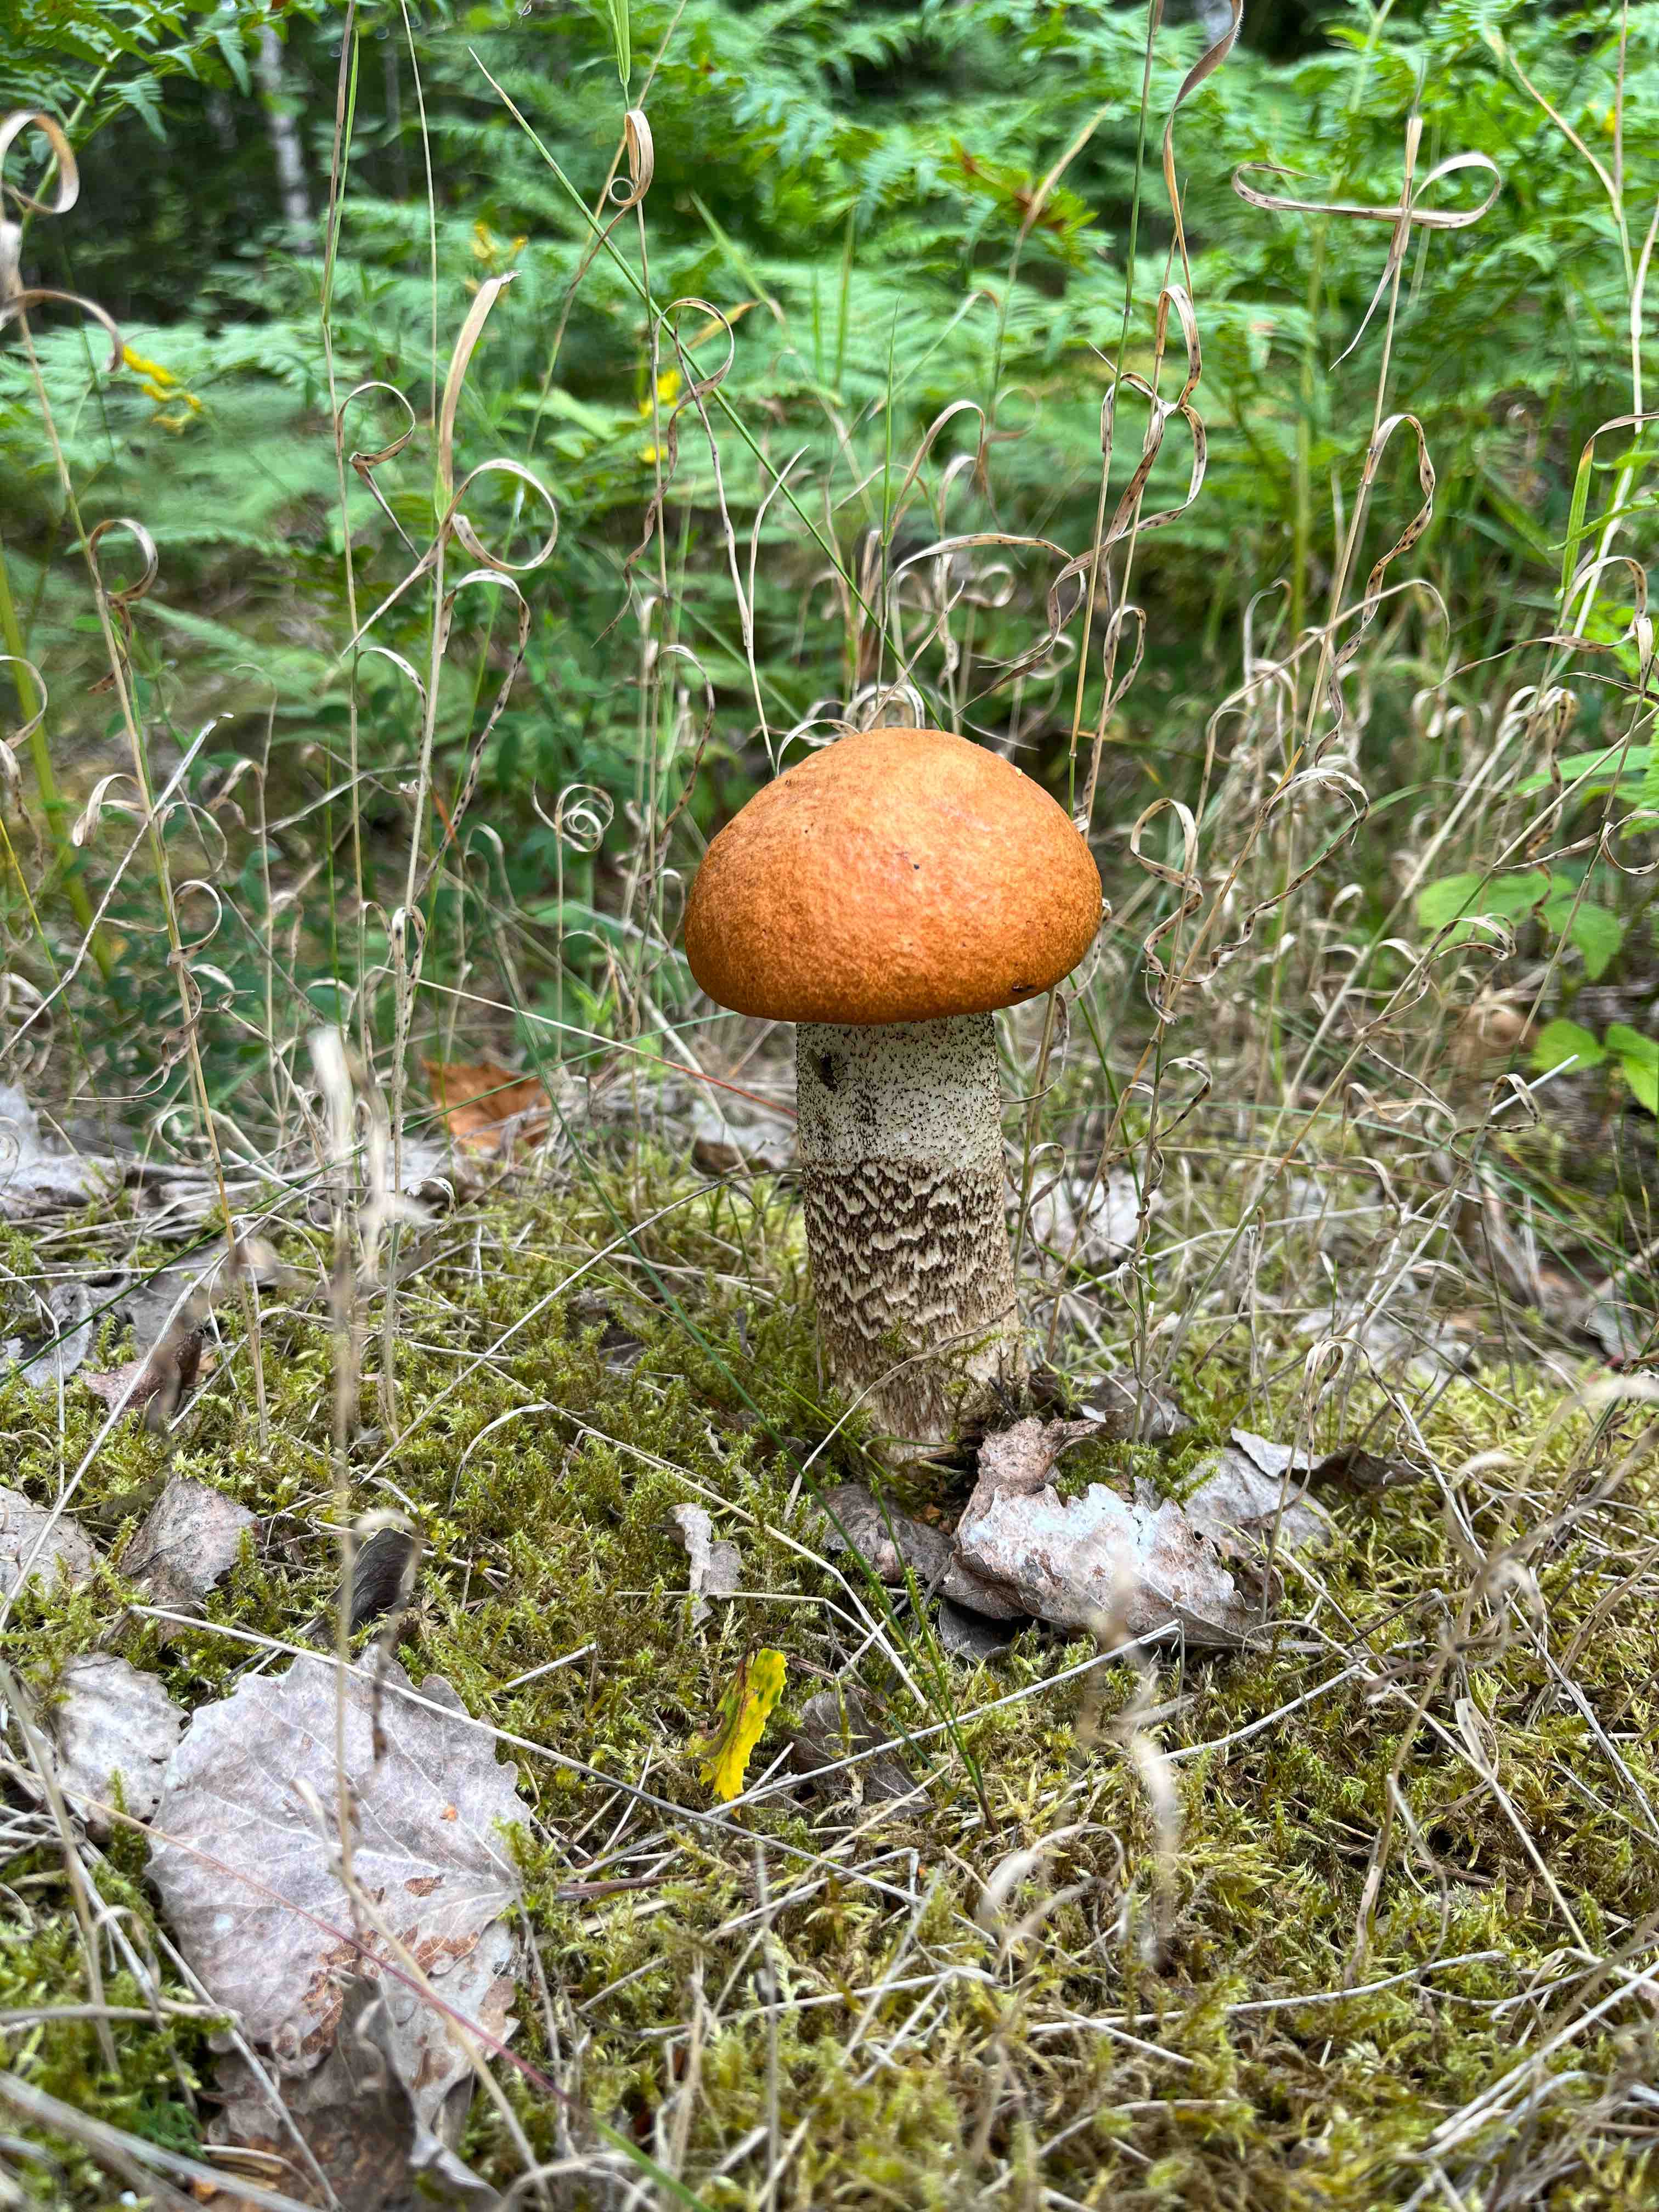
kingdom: Fungi
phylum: Basidiomycota
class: Agaricomycetes
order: Boletales
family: Boletaceae
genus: Leccinum
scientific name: Leccinum
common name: skælrørhat
